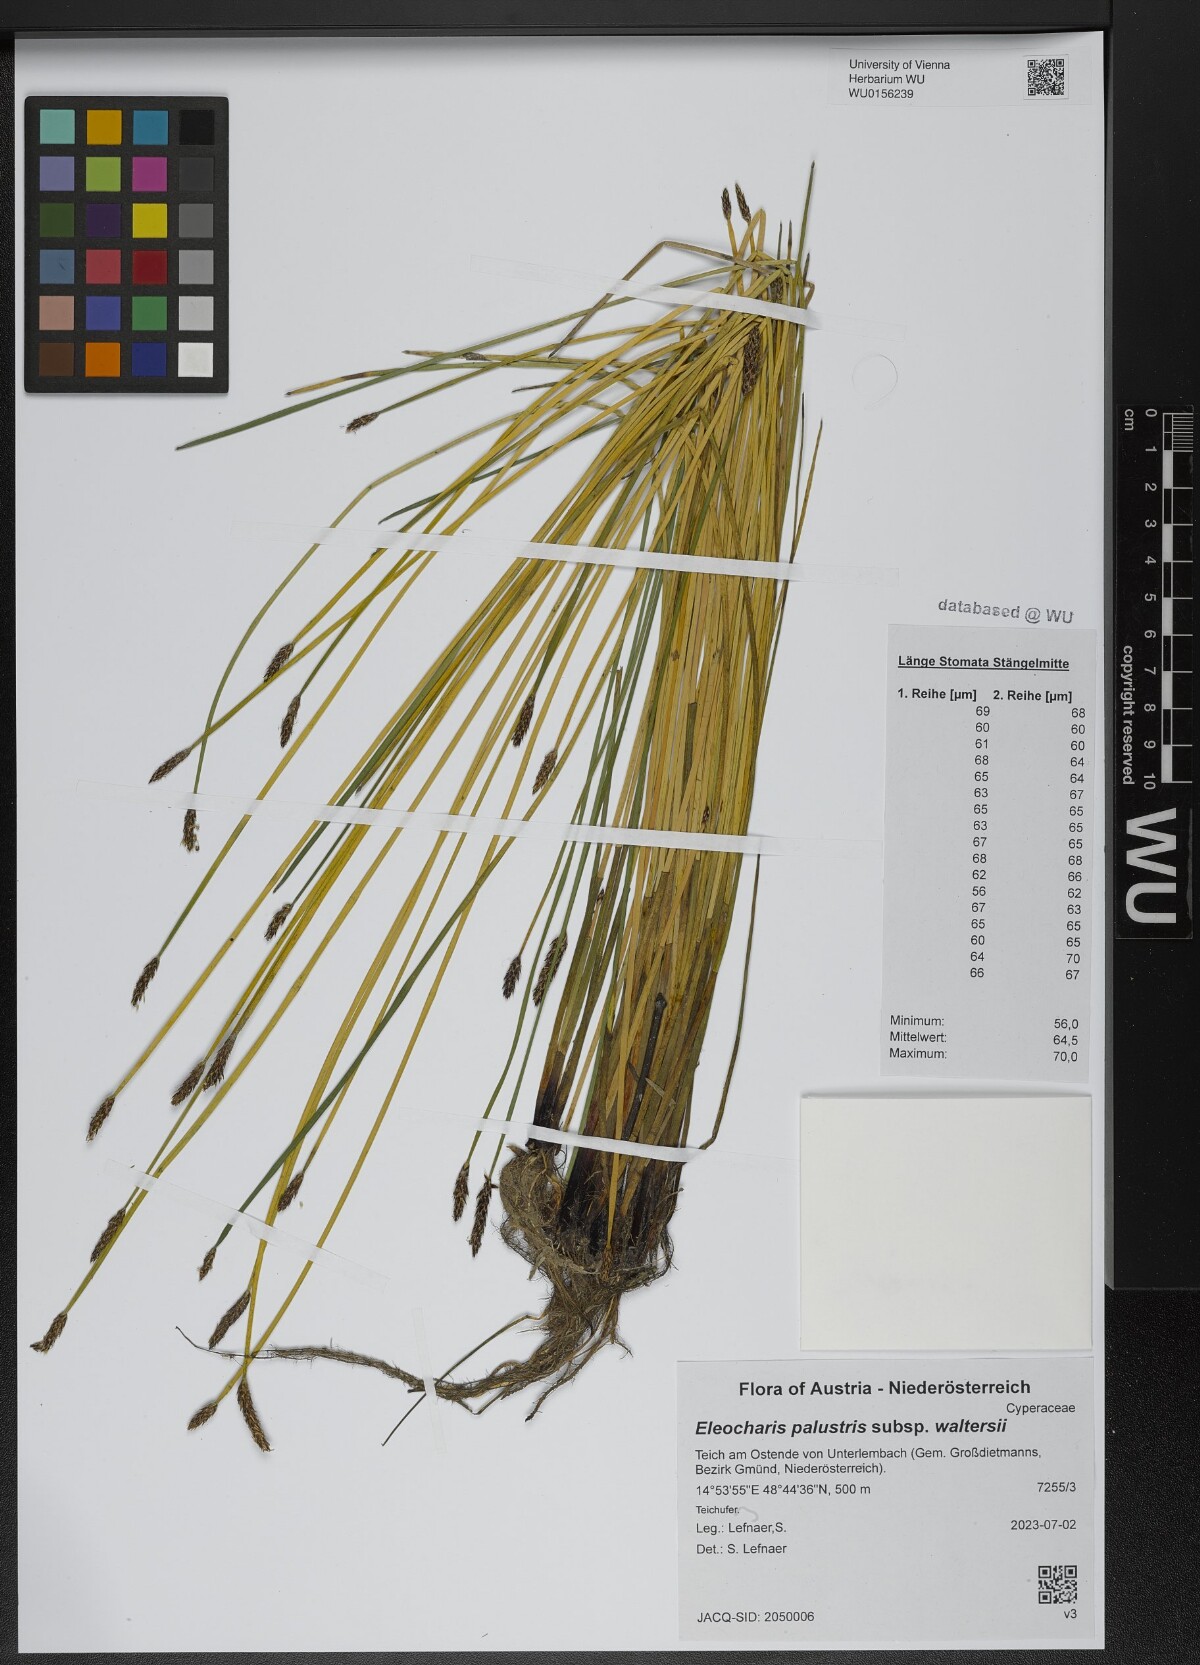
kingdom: Plantae
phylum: Tracheophyta
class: Liliopsida
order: Poales
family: Cyperaceae
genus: Eleocharis
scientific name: Eleocharis palustris
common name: Common spike-rush
